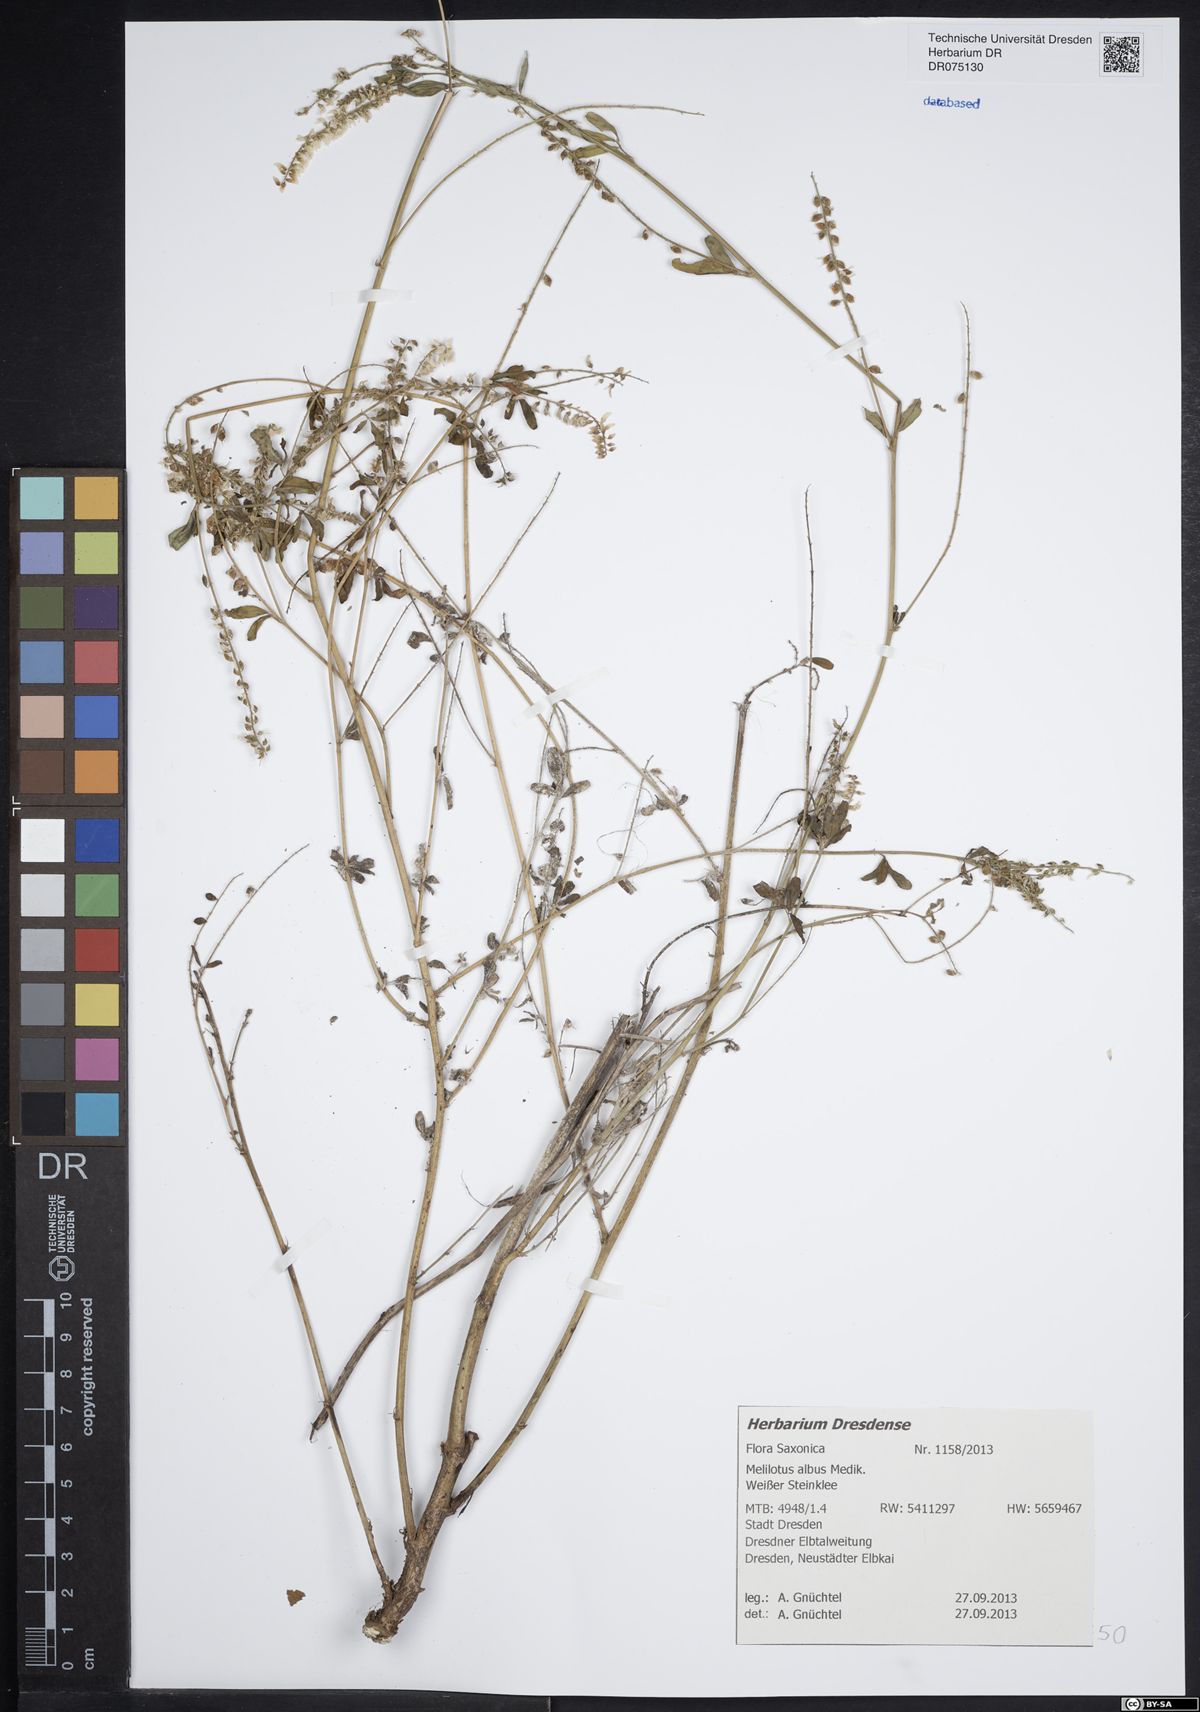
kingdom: Plantae
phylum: Tracheophyta
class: Magnoliopsida
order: Fabales
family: Fabaceae
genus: Melilotus
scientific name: Melilotus albus
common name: White melilot
